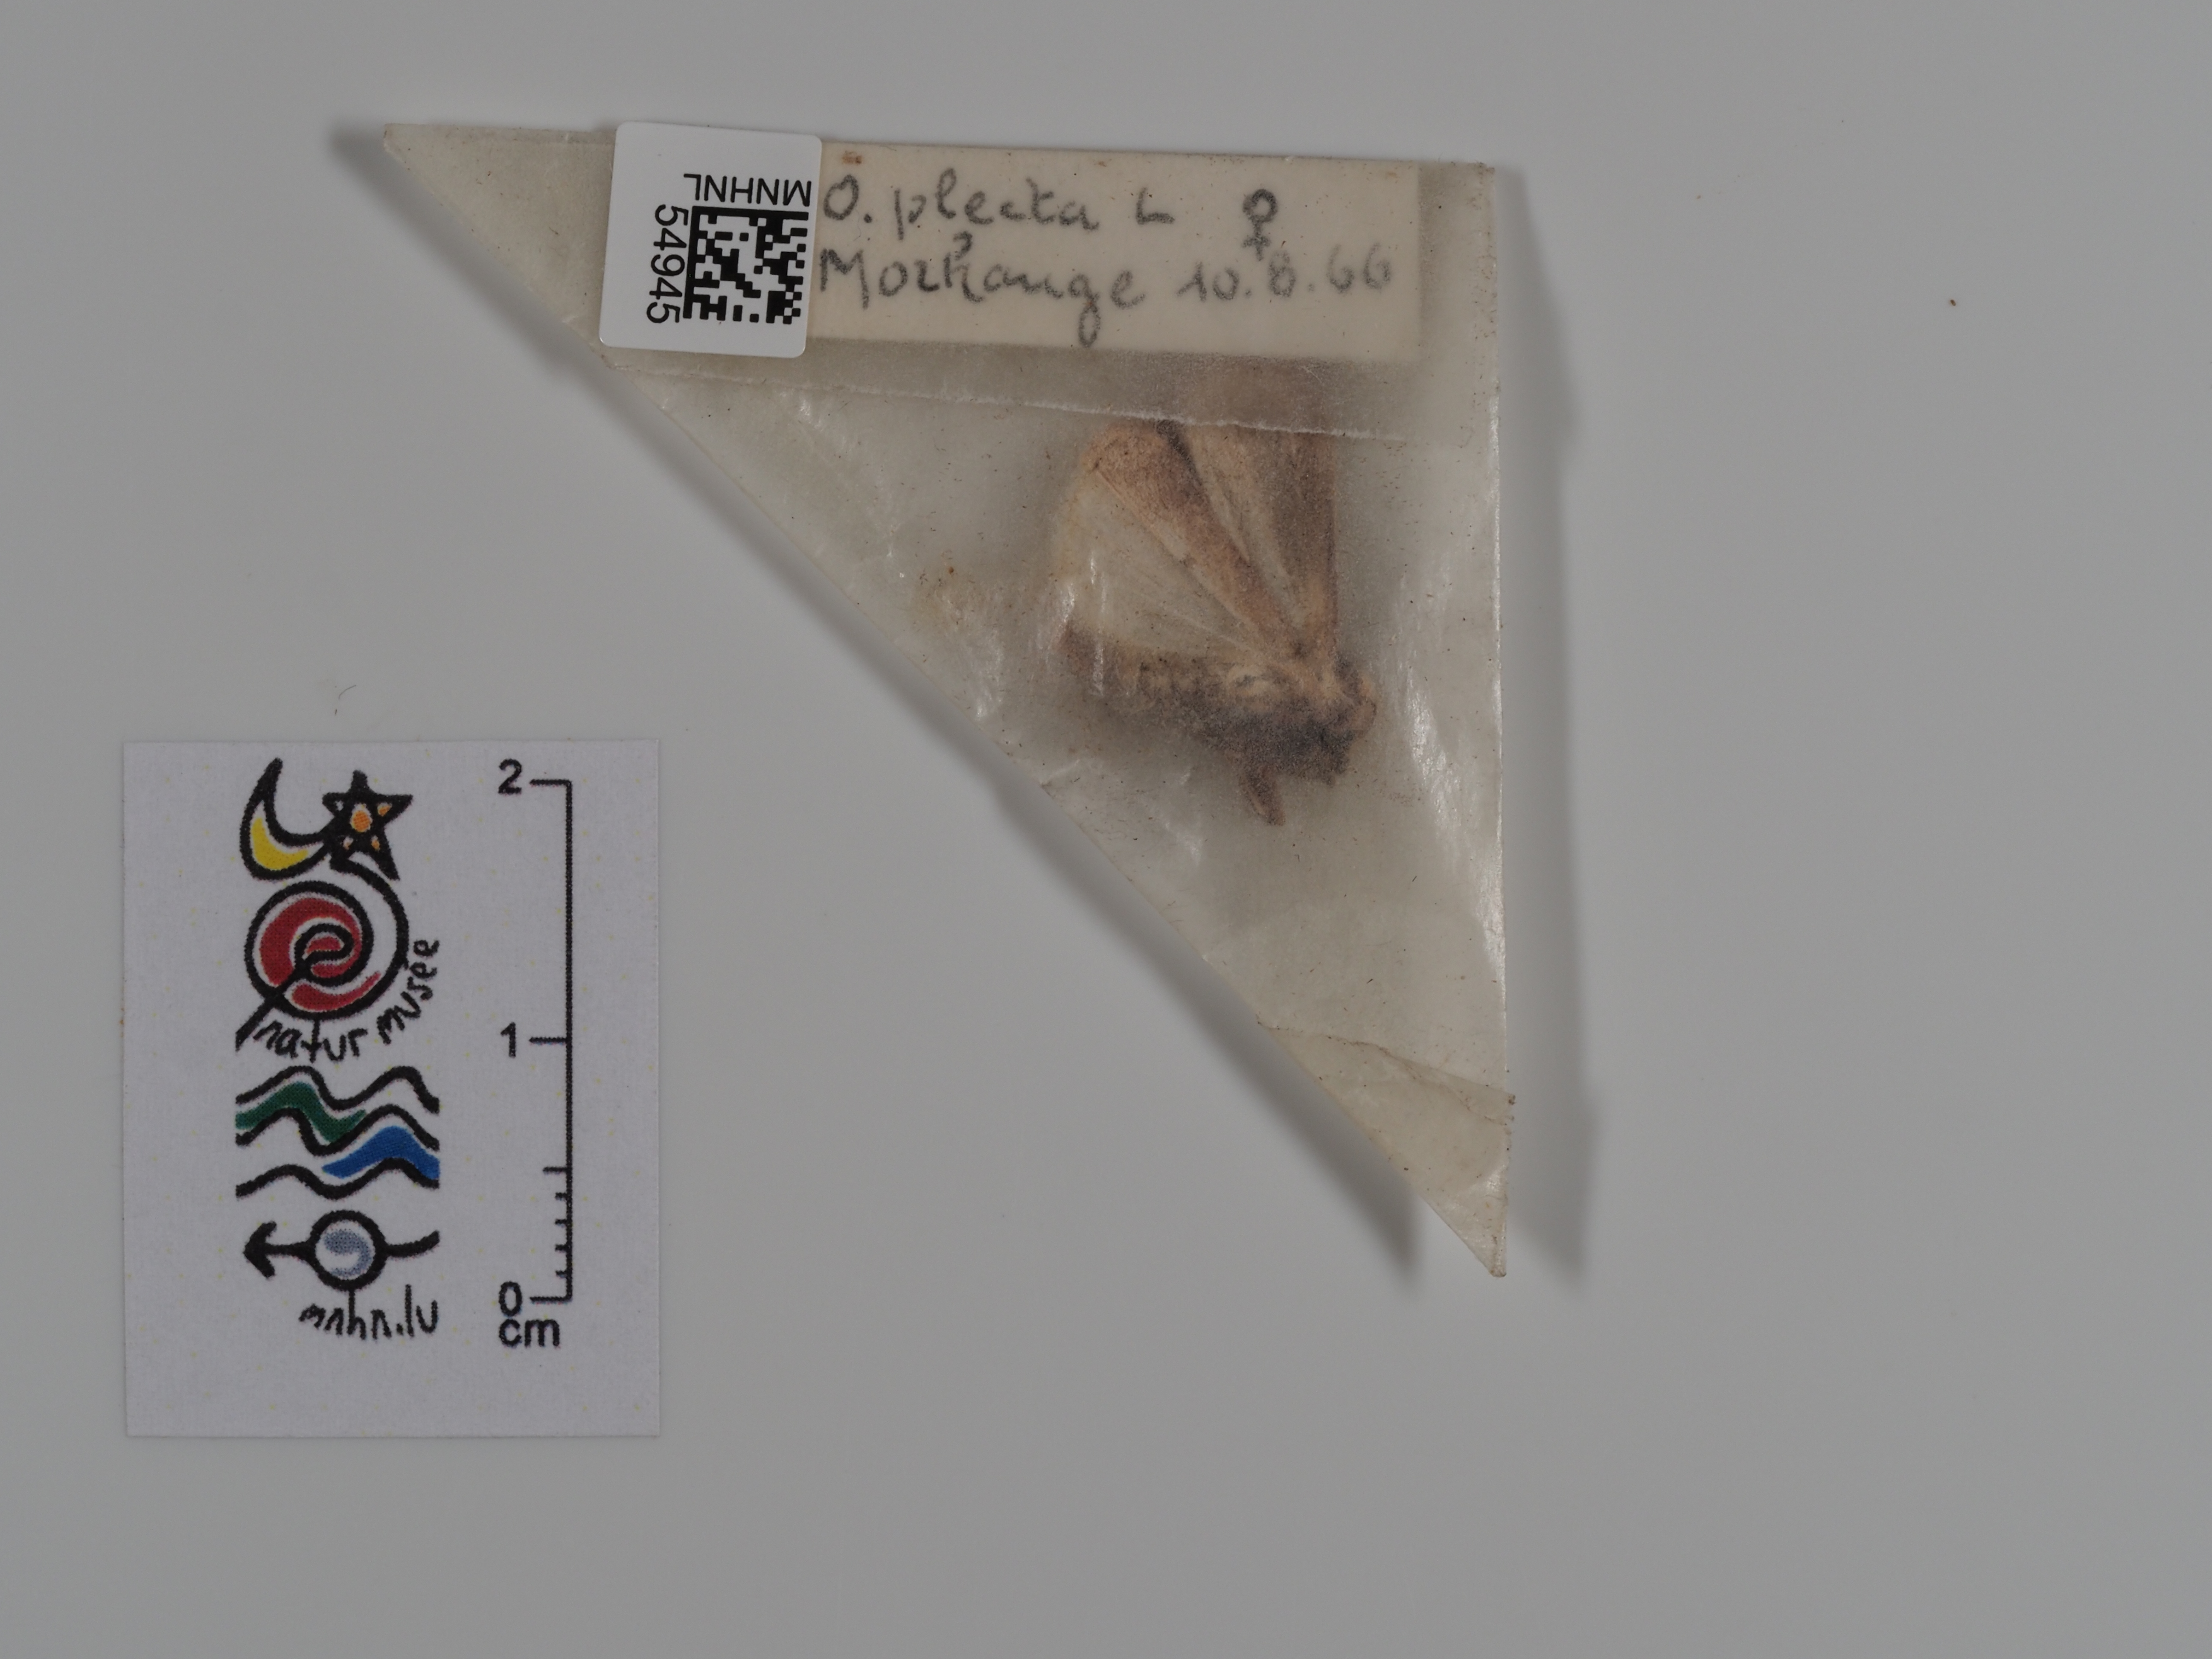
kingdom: Animalia
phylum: Arthropoda
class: Insecta
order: Lepidoptera
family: Noctuidae
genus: Ochropleura
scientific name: Ochropleura plecta
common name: Flame shoulder
